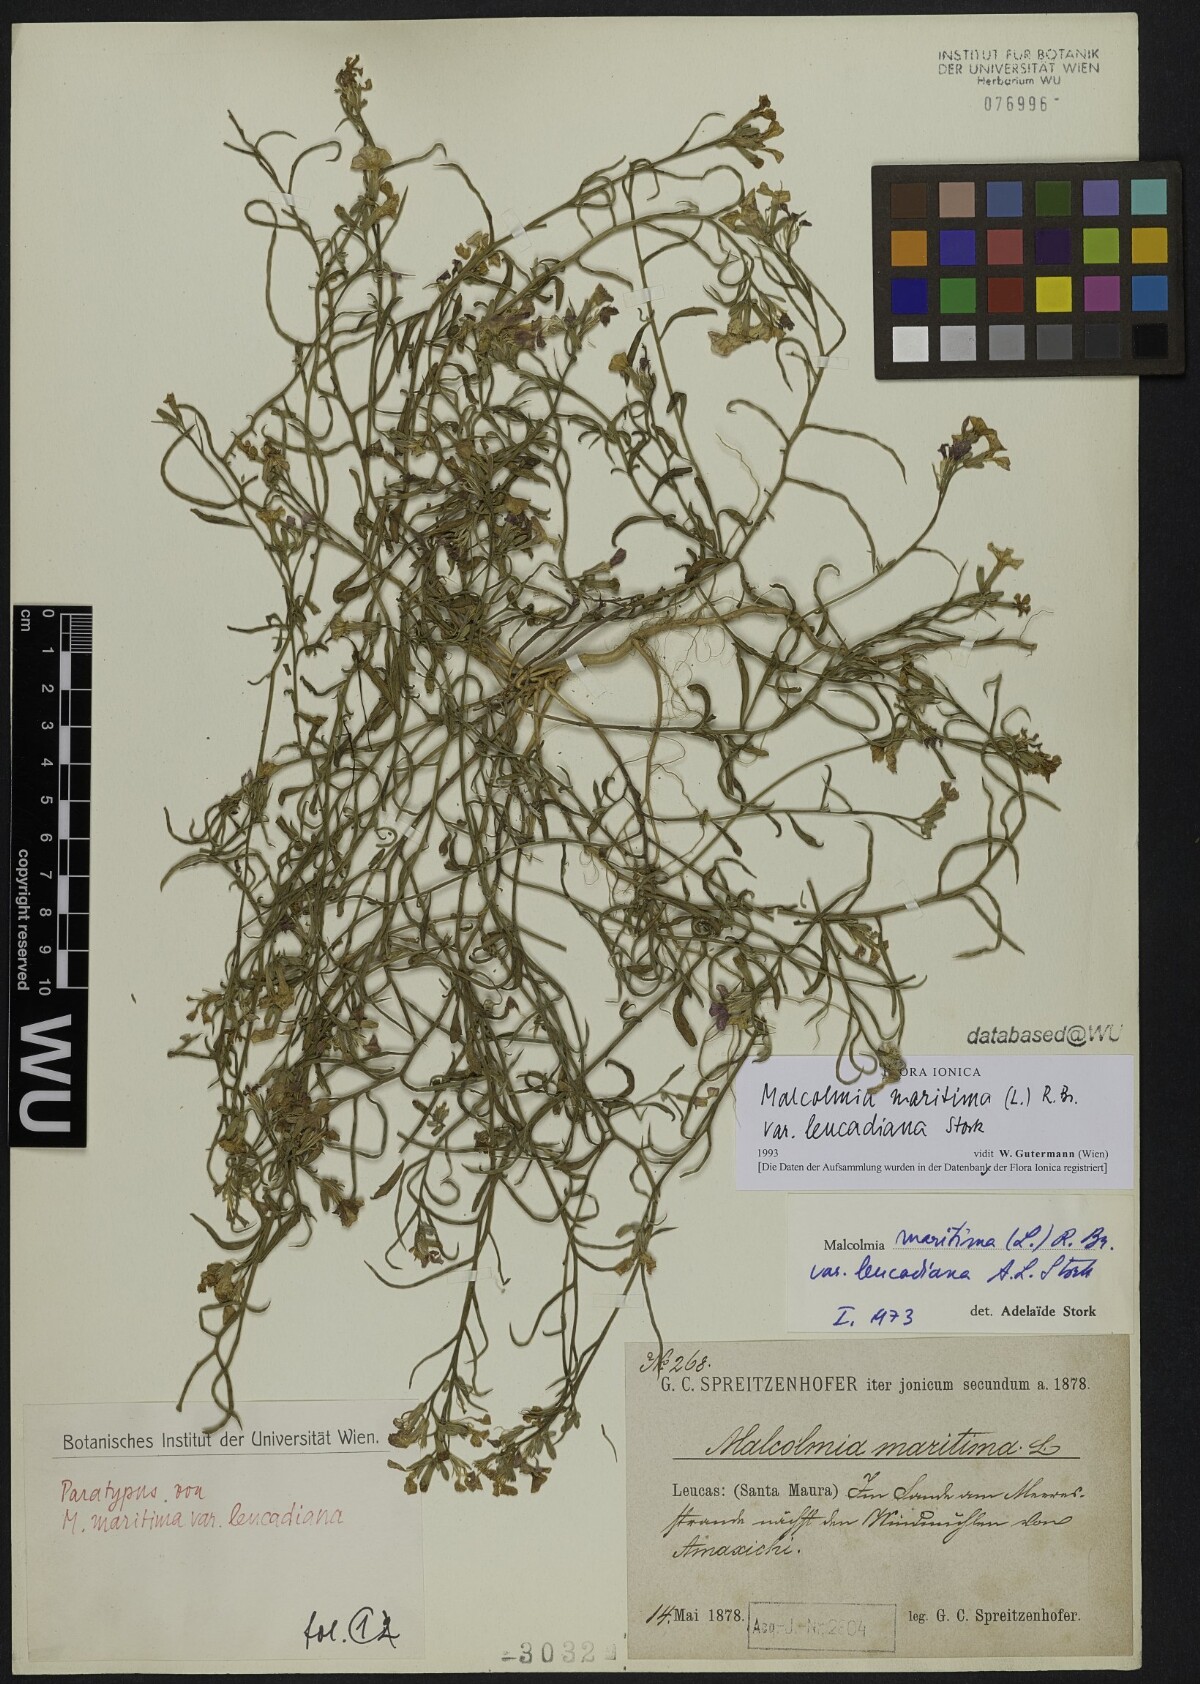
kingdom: Plantae
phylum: Tracheophyta
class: Magnoliopsida
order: Brassicales
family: Brassicaceae
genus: Malcolmia
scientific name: Malcolmia maritima
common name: Virginia stock
